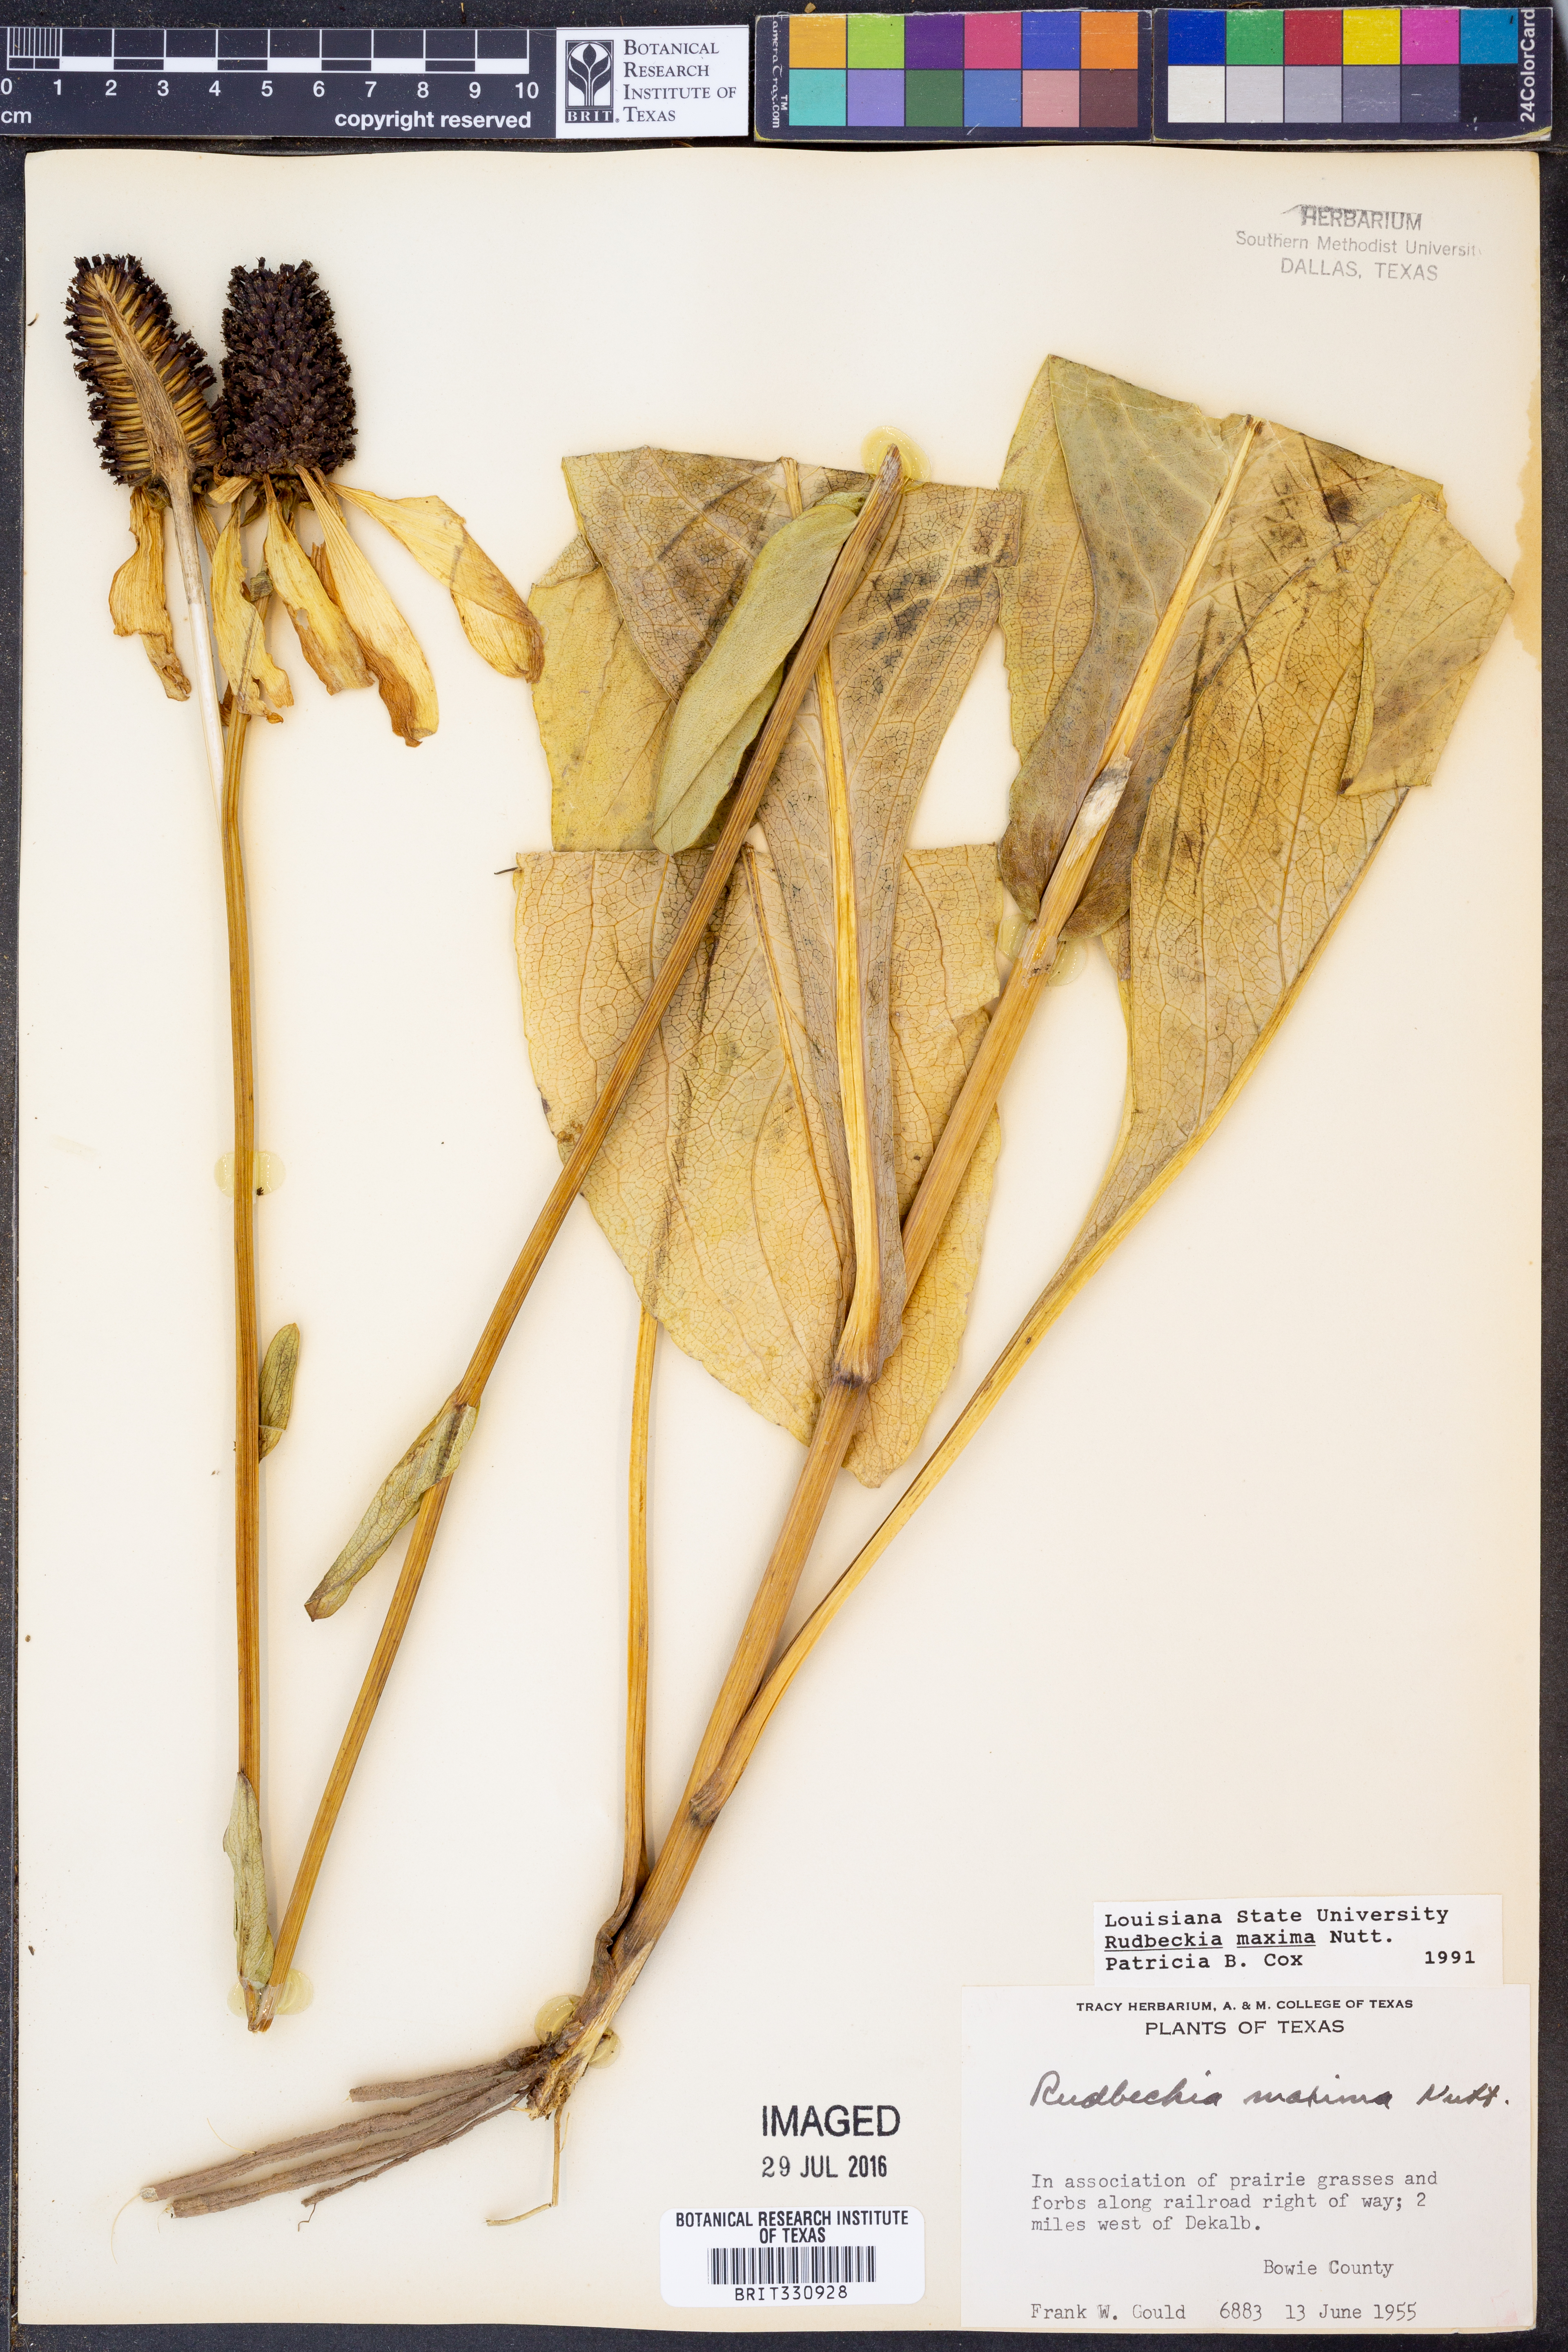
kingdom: Plantae
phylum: Tracheophyta
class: Magnoliopsida
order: Asterales
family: Asteraceae
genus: Rudbeckia
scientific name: Rudbeckia maxima
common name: Cabbage coneflower
